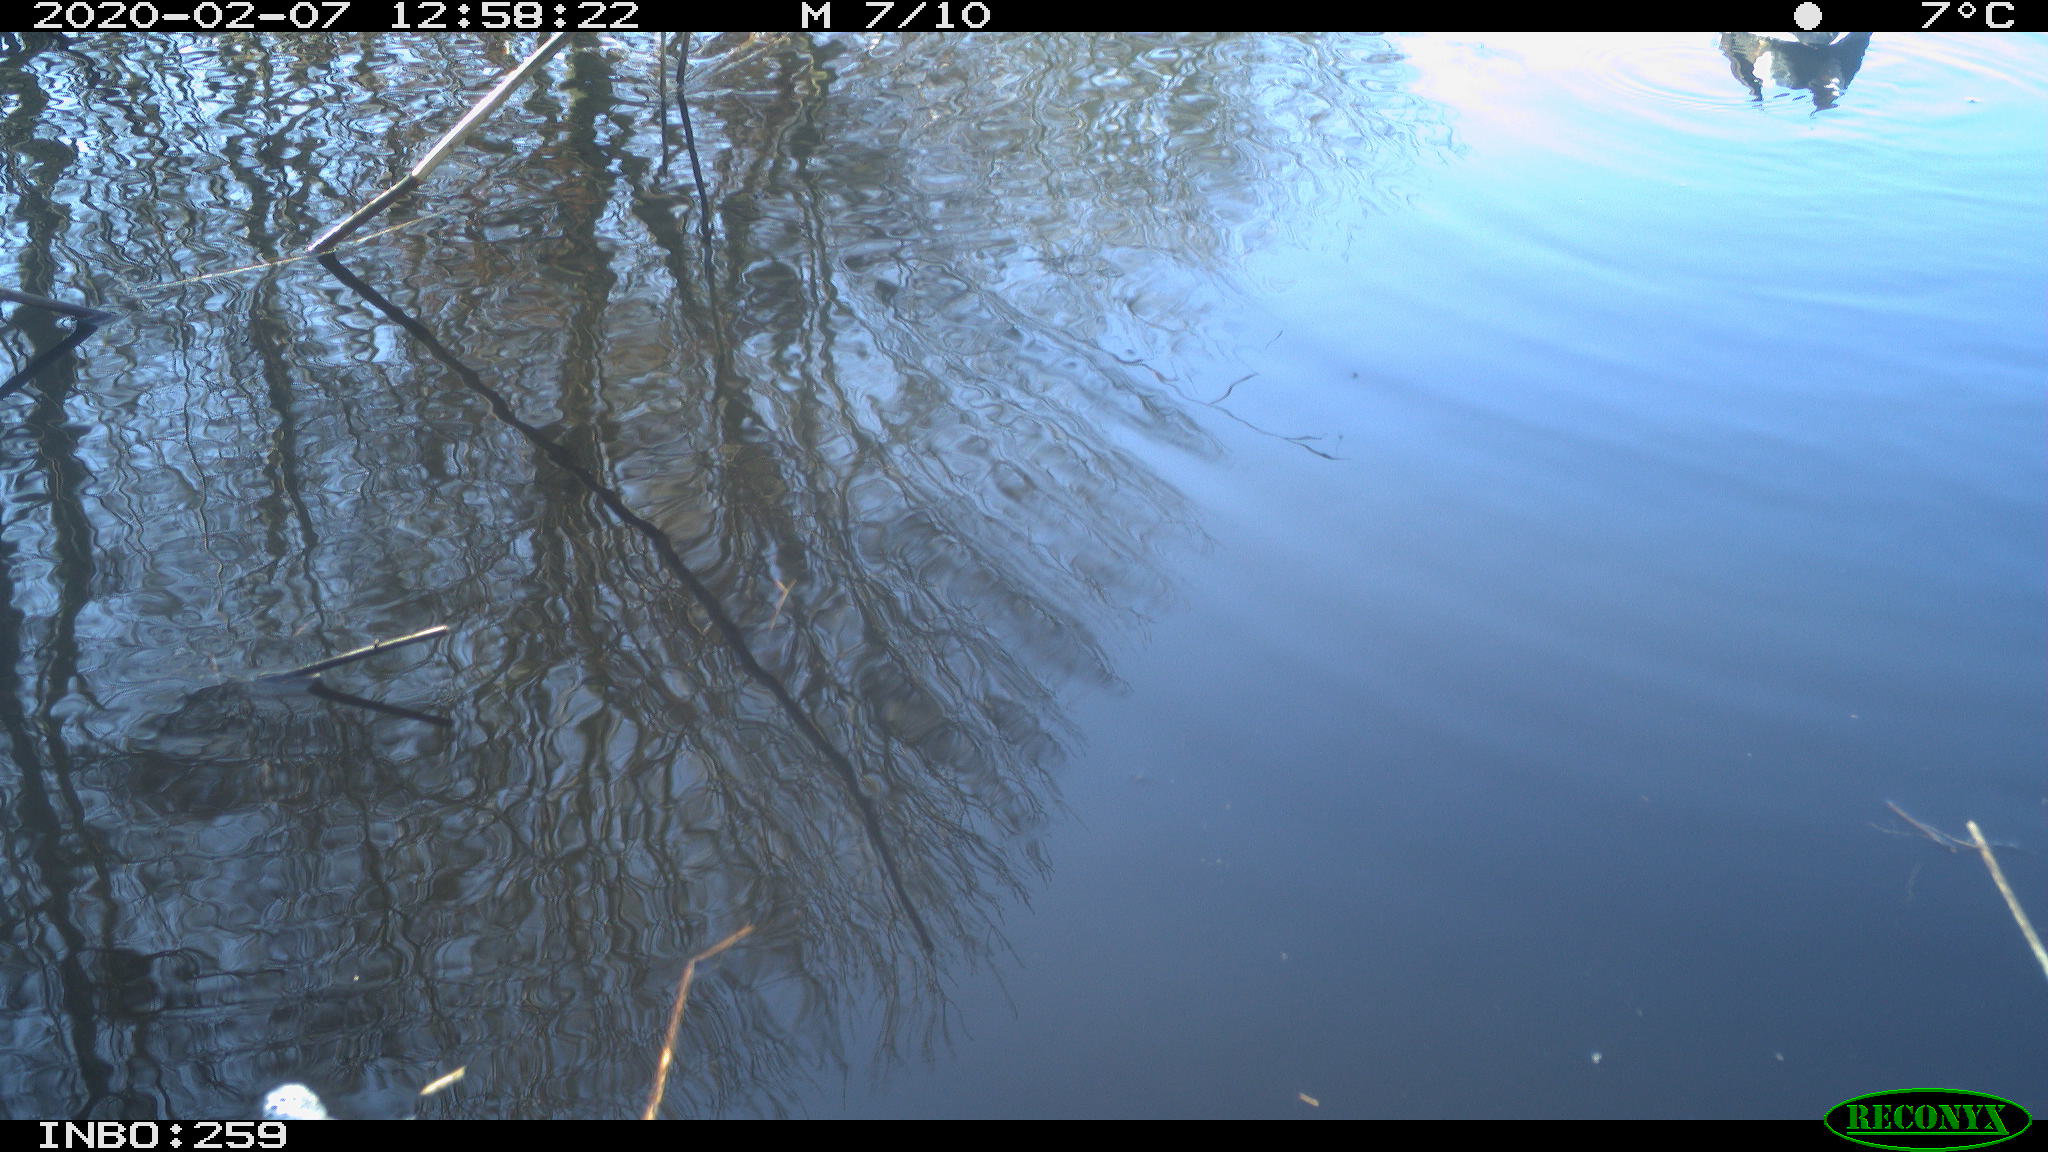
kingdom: Animalia
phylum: Chordata
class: Aves
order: Gruiformes
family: Rallidae
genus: Gallinula
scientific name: Gallinula chloropus
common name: Common moorhen
